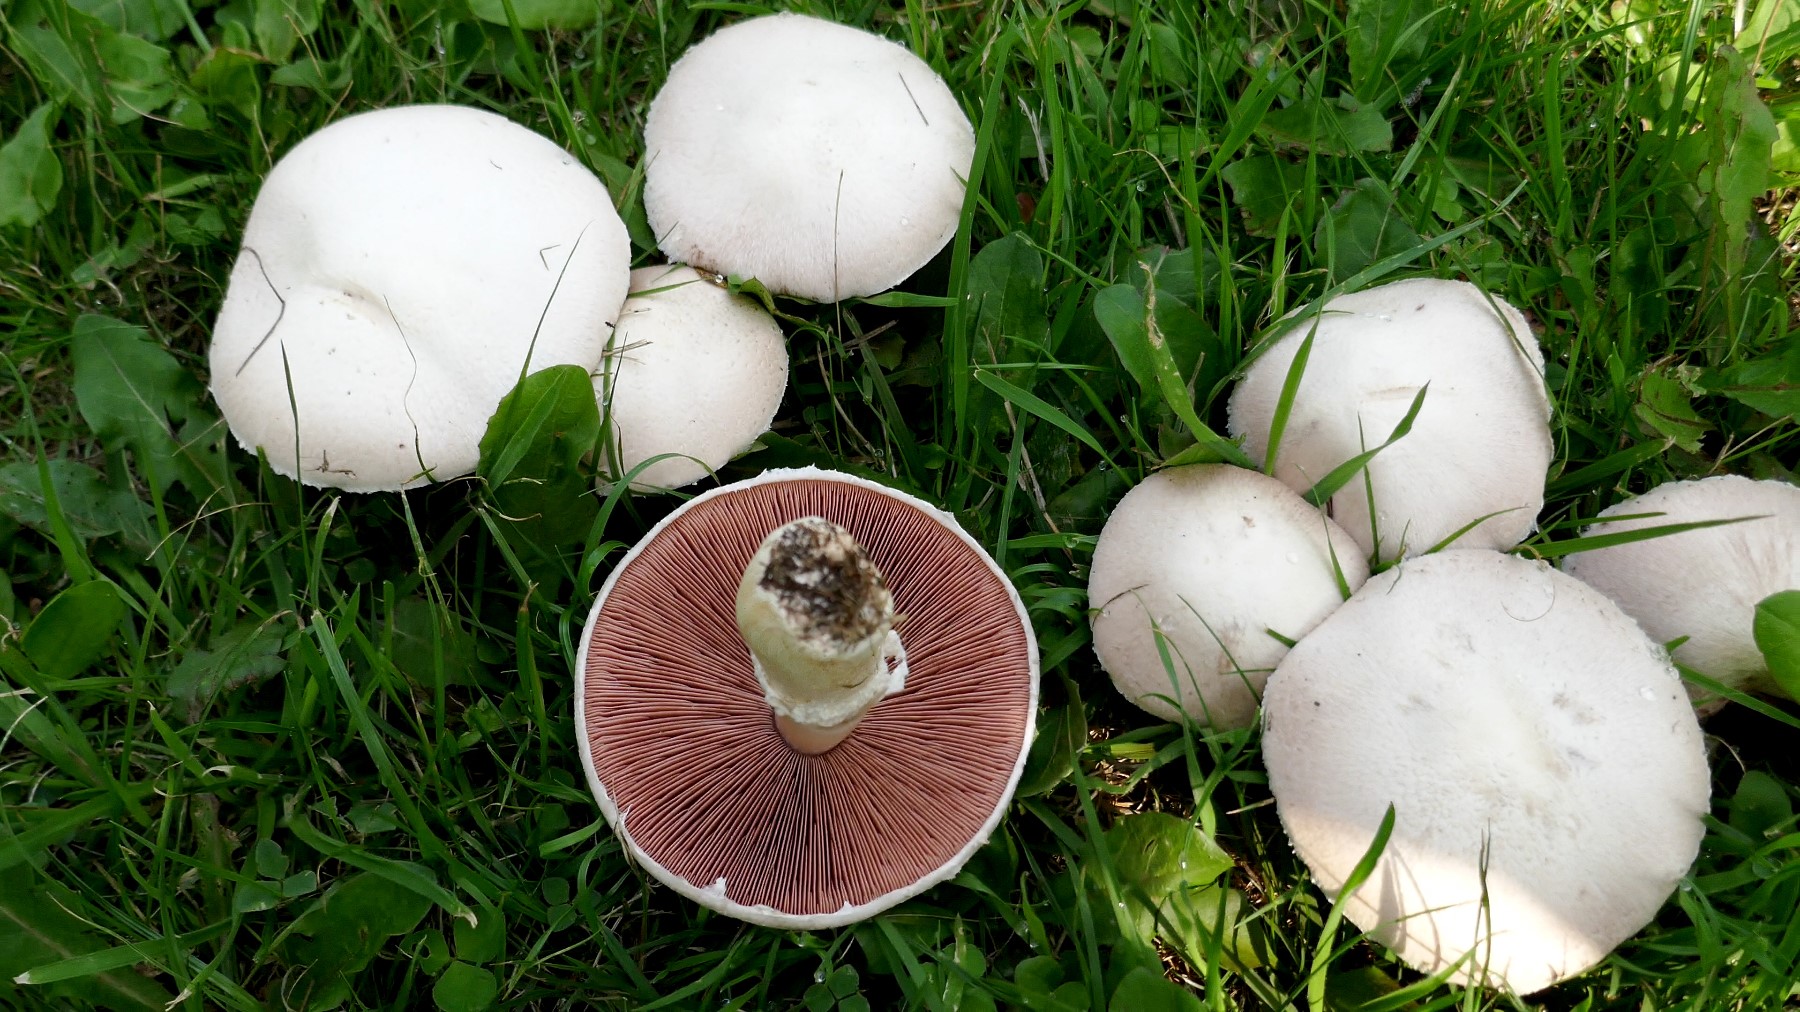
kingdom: Fungi
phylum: Basidiomycota
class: Agaricomycetes
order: Agaricales
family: Agaricaceae
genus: Agaricus
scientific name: Agaricus campestris
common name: mark-champignon
